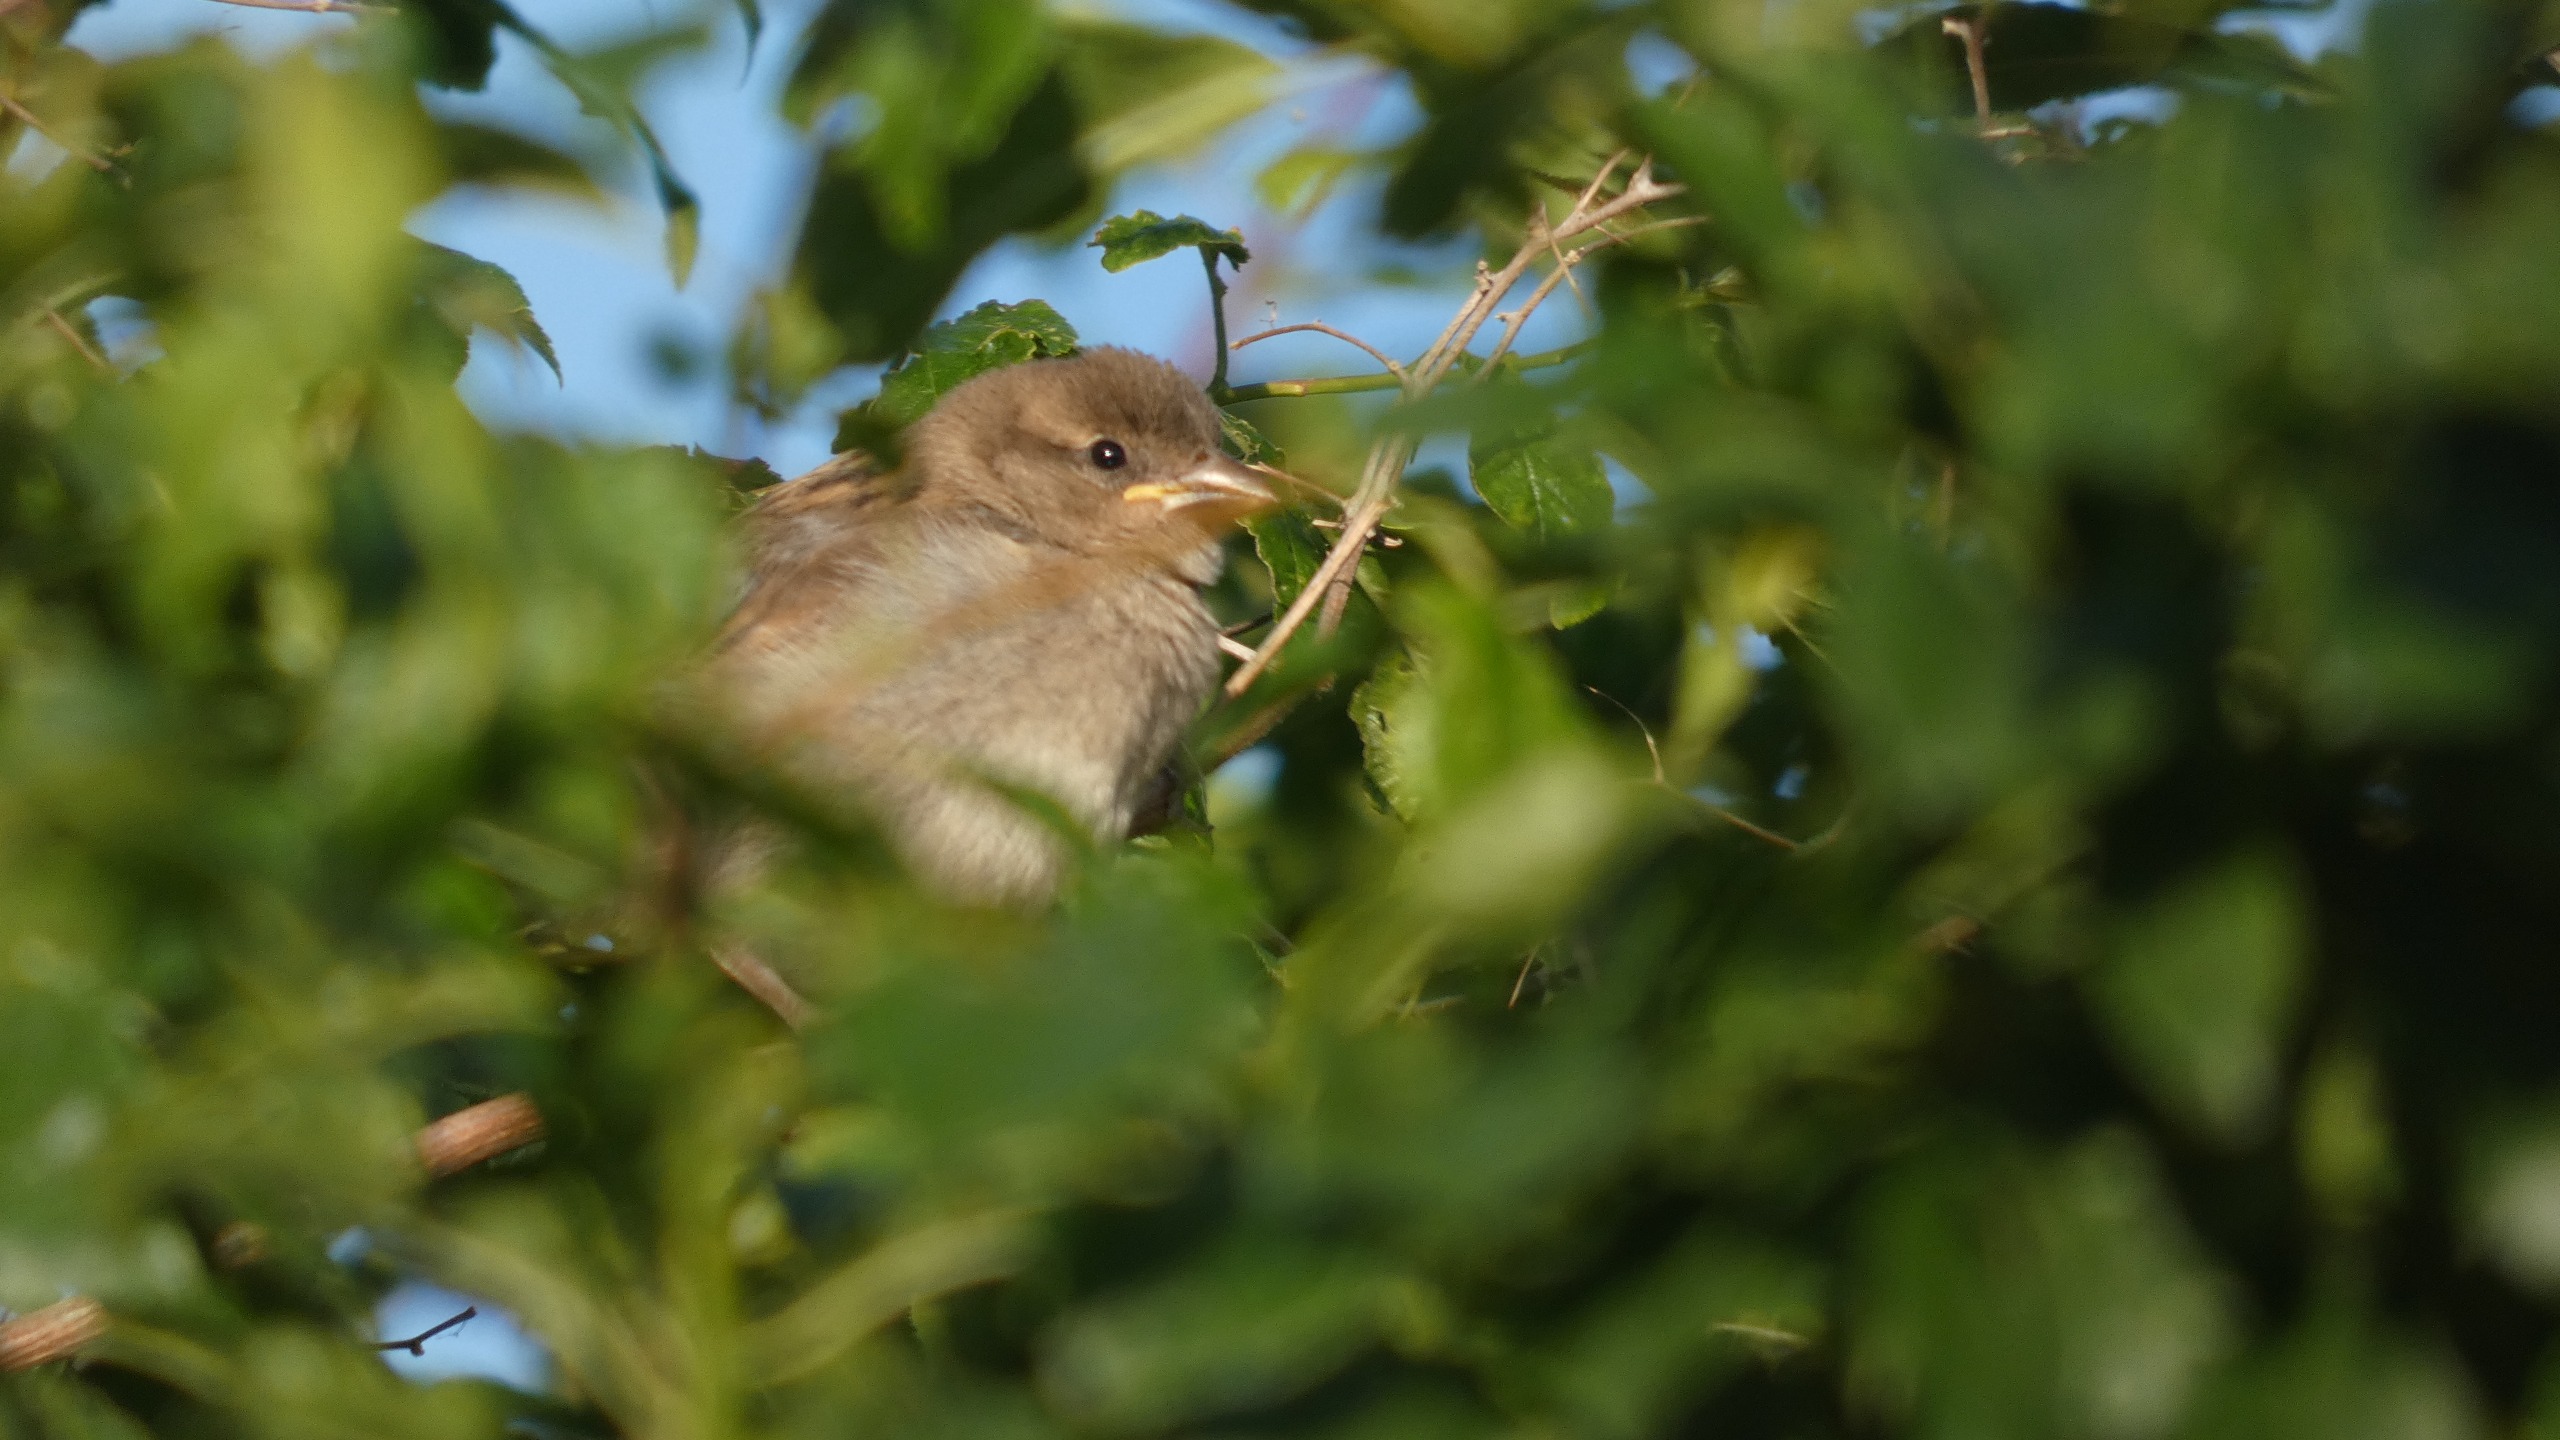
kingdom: Animalia
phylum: Chordata
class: Aves
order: Passeriformes
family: Passeridae
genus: Passer
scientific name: Passer domesticus
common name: Gråspurv
